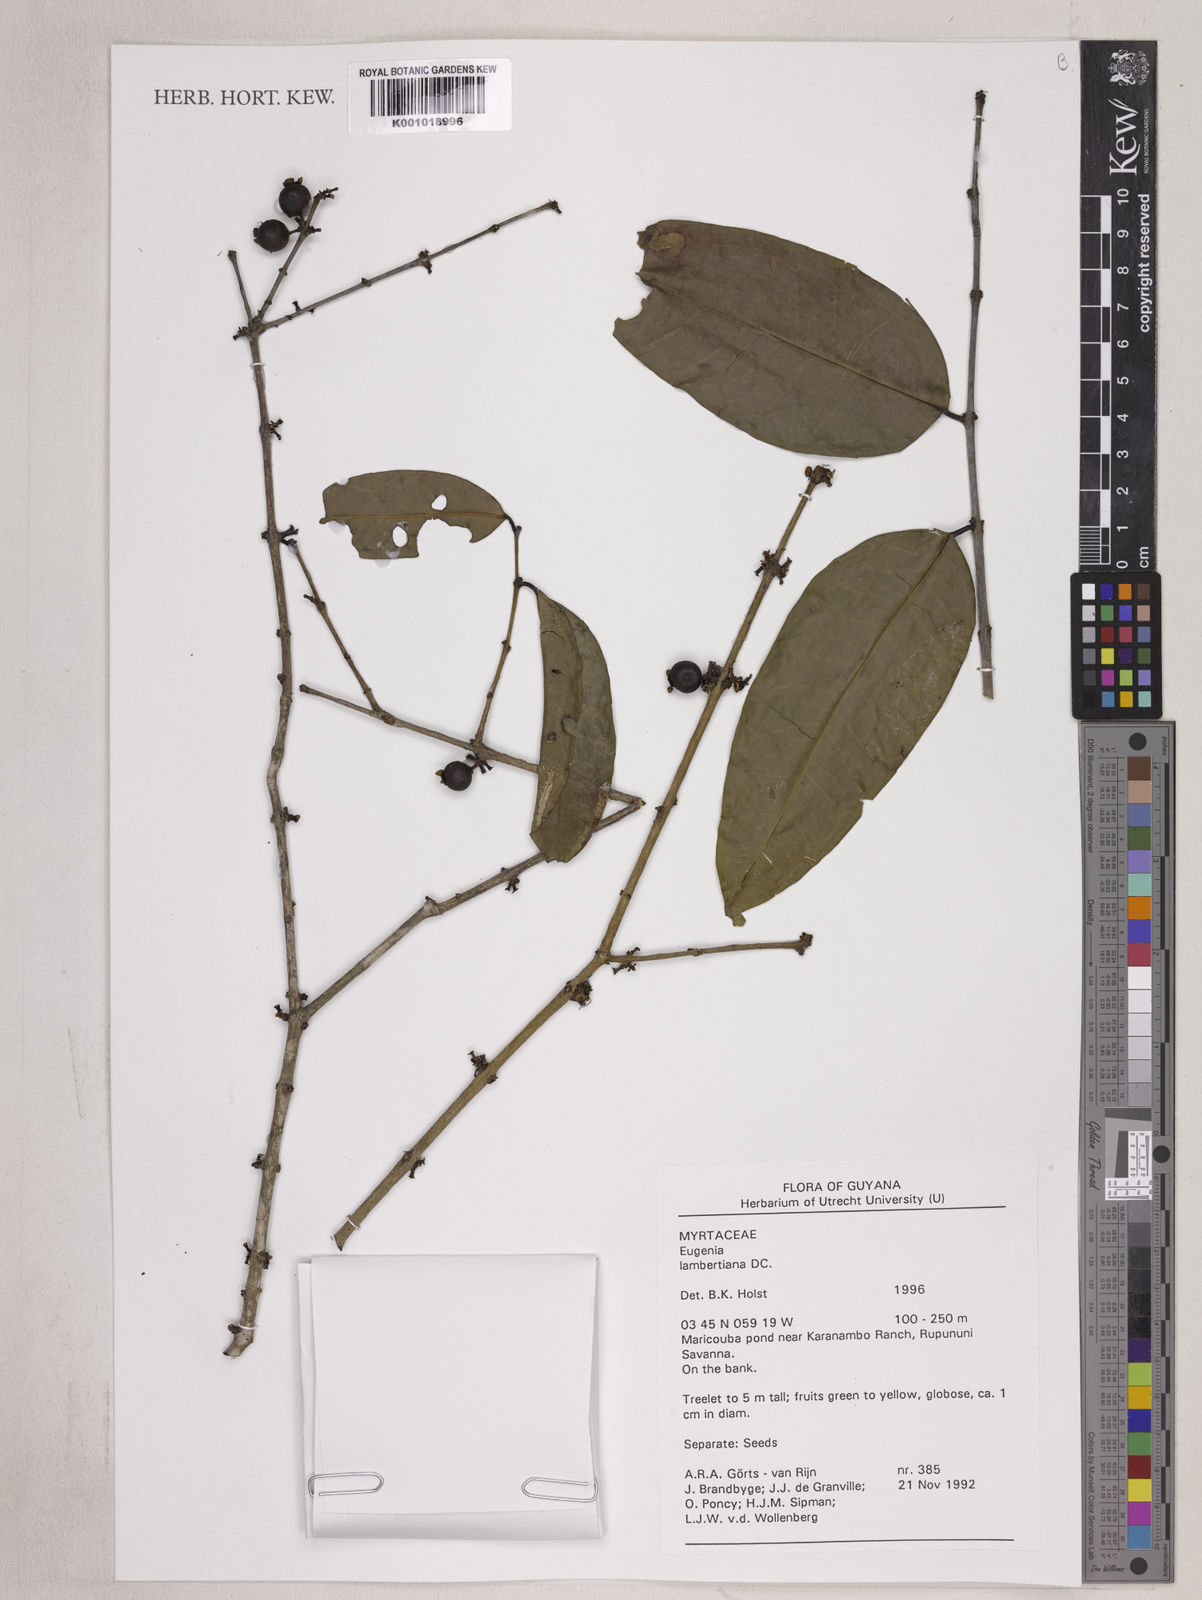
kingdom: Plantae
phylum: Tracheophyta
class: Magnoliopsida
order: Myrtales
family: Myrtaceae
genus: Eugenia
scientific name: Eugenia lambertiana
